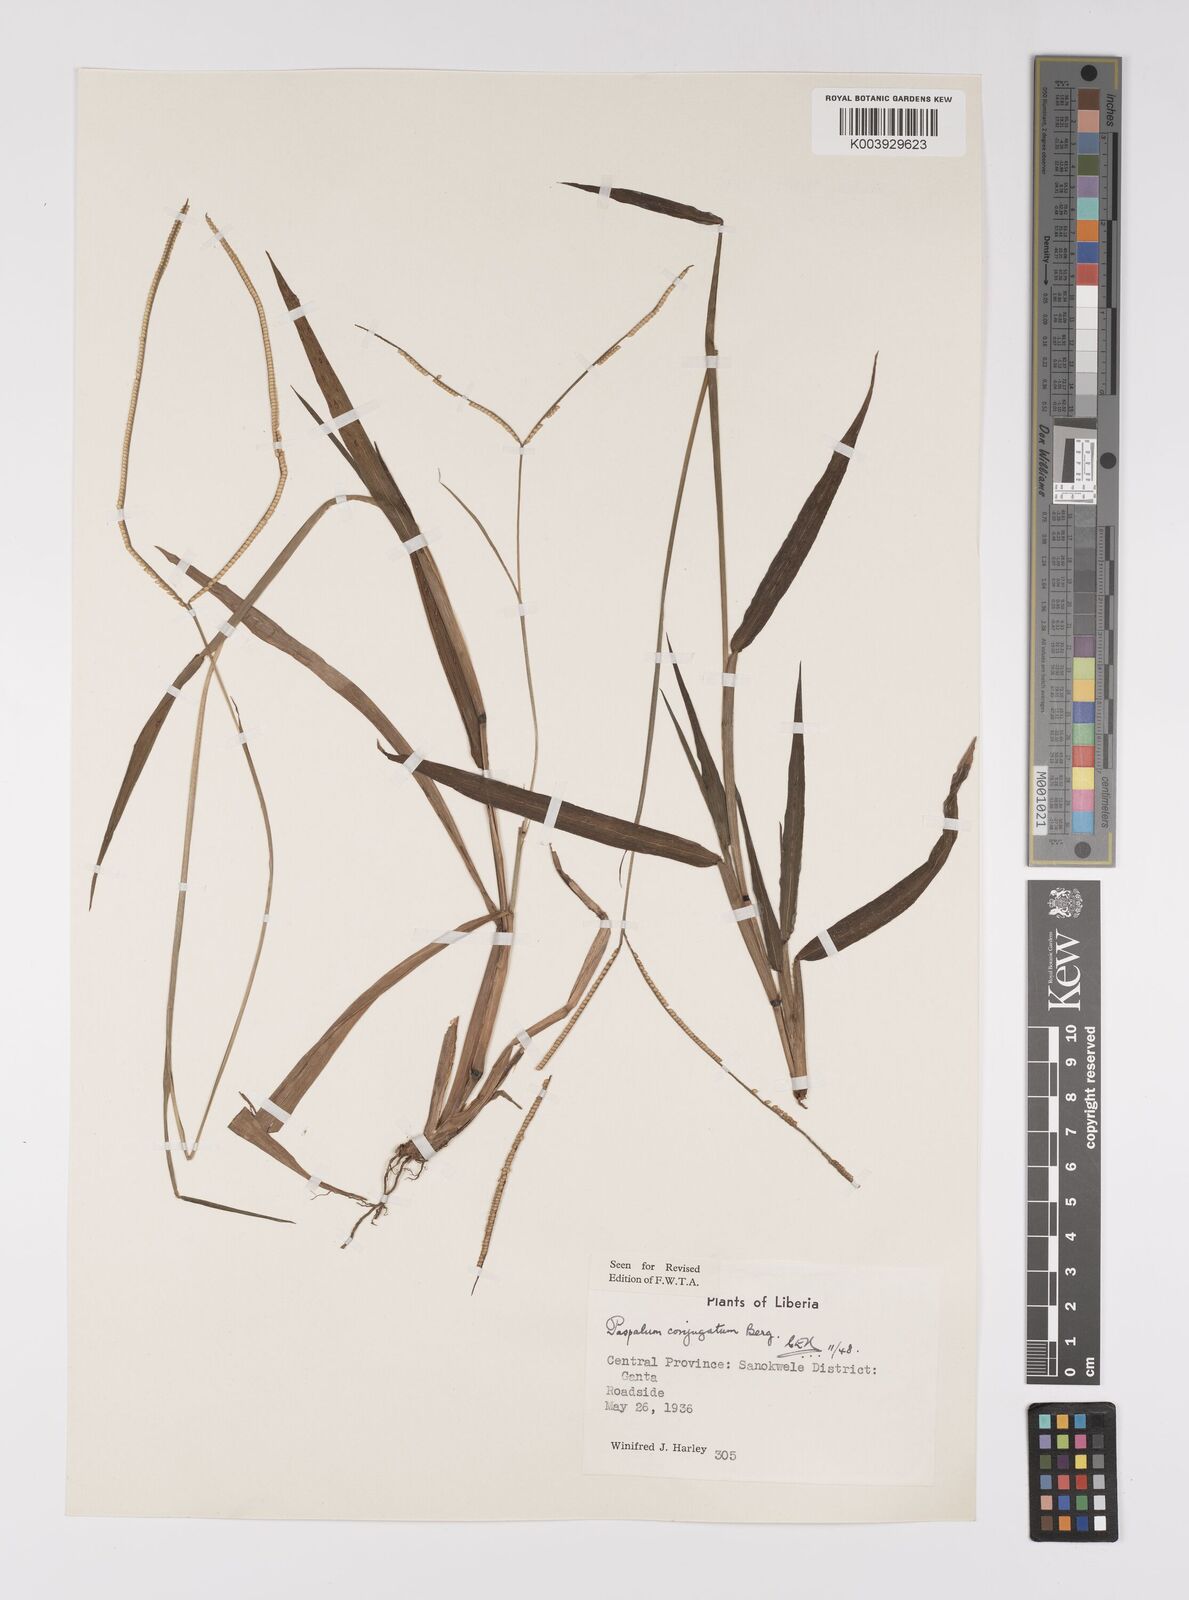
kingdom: Plantae
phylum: Tracheophyta
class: Liliopsida
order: Poales
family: Poaceae
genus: Paspalum
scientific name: Paspalum conjugatum
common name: Hilograss
